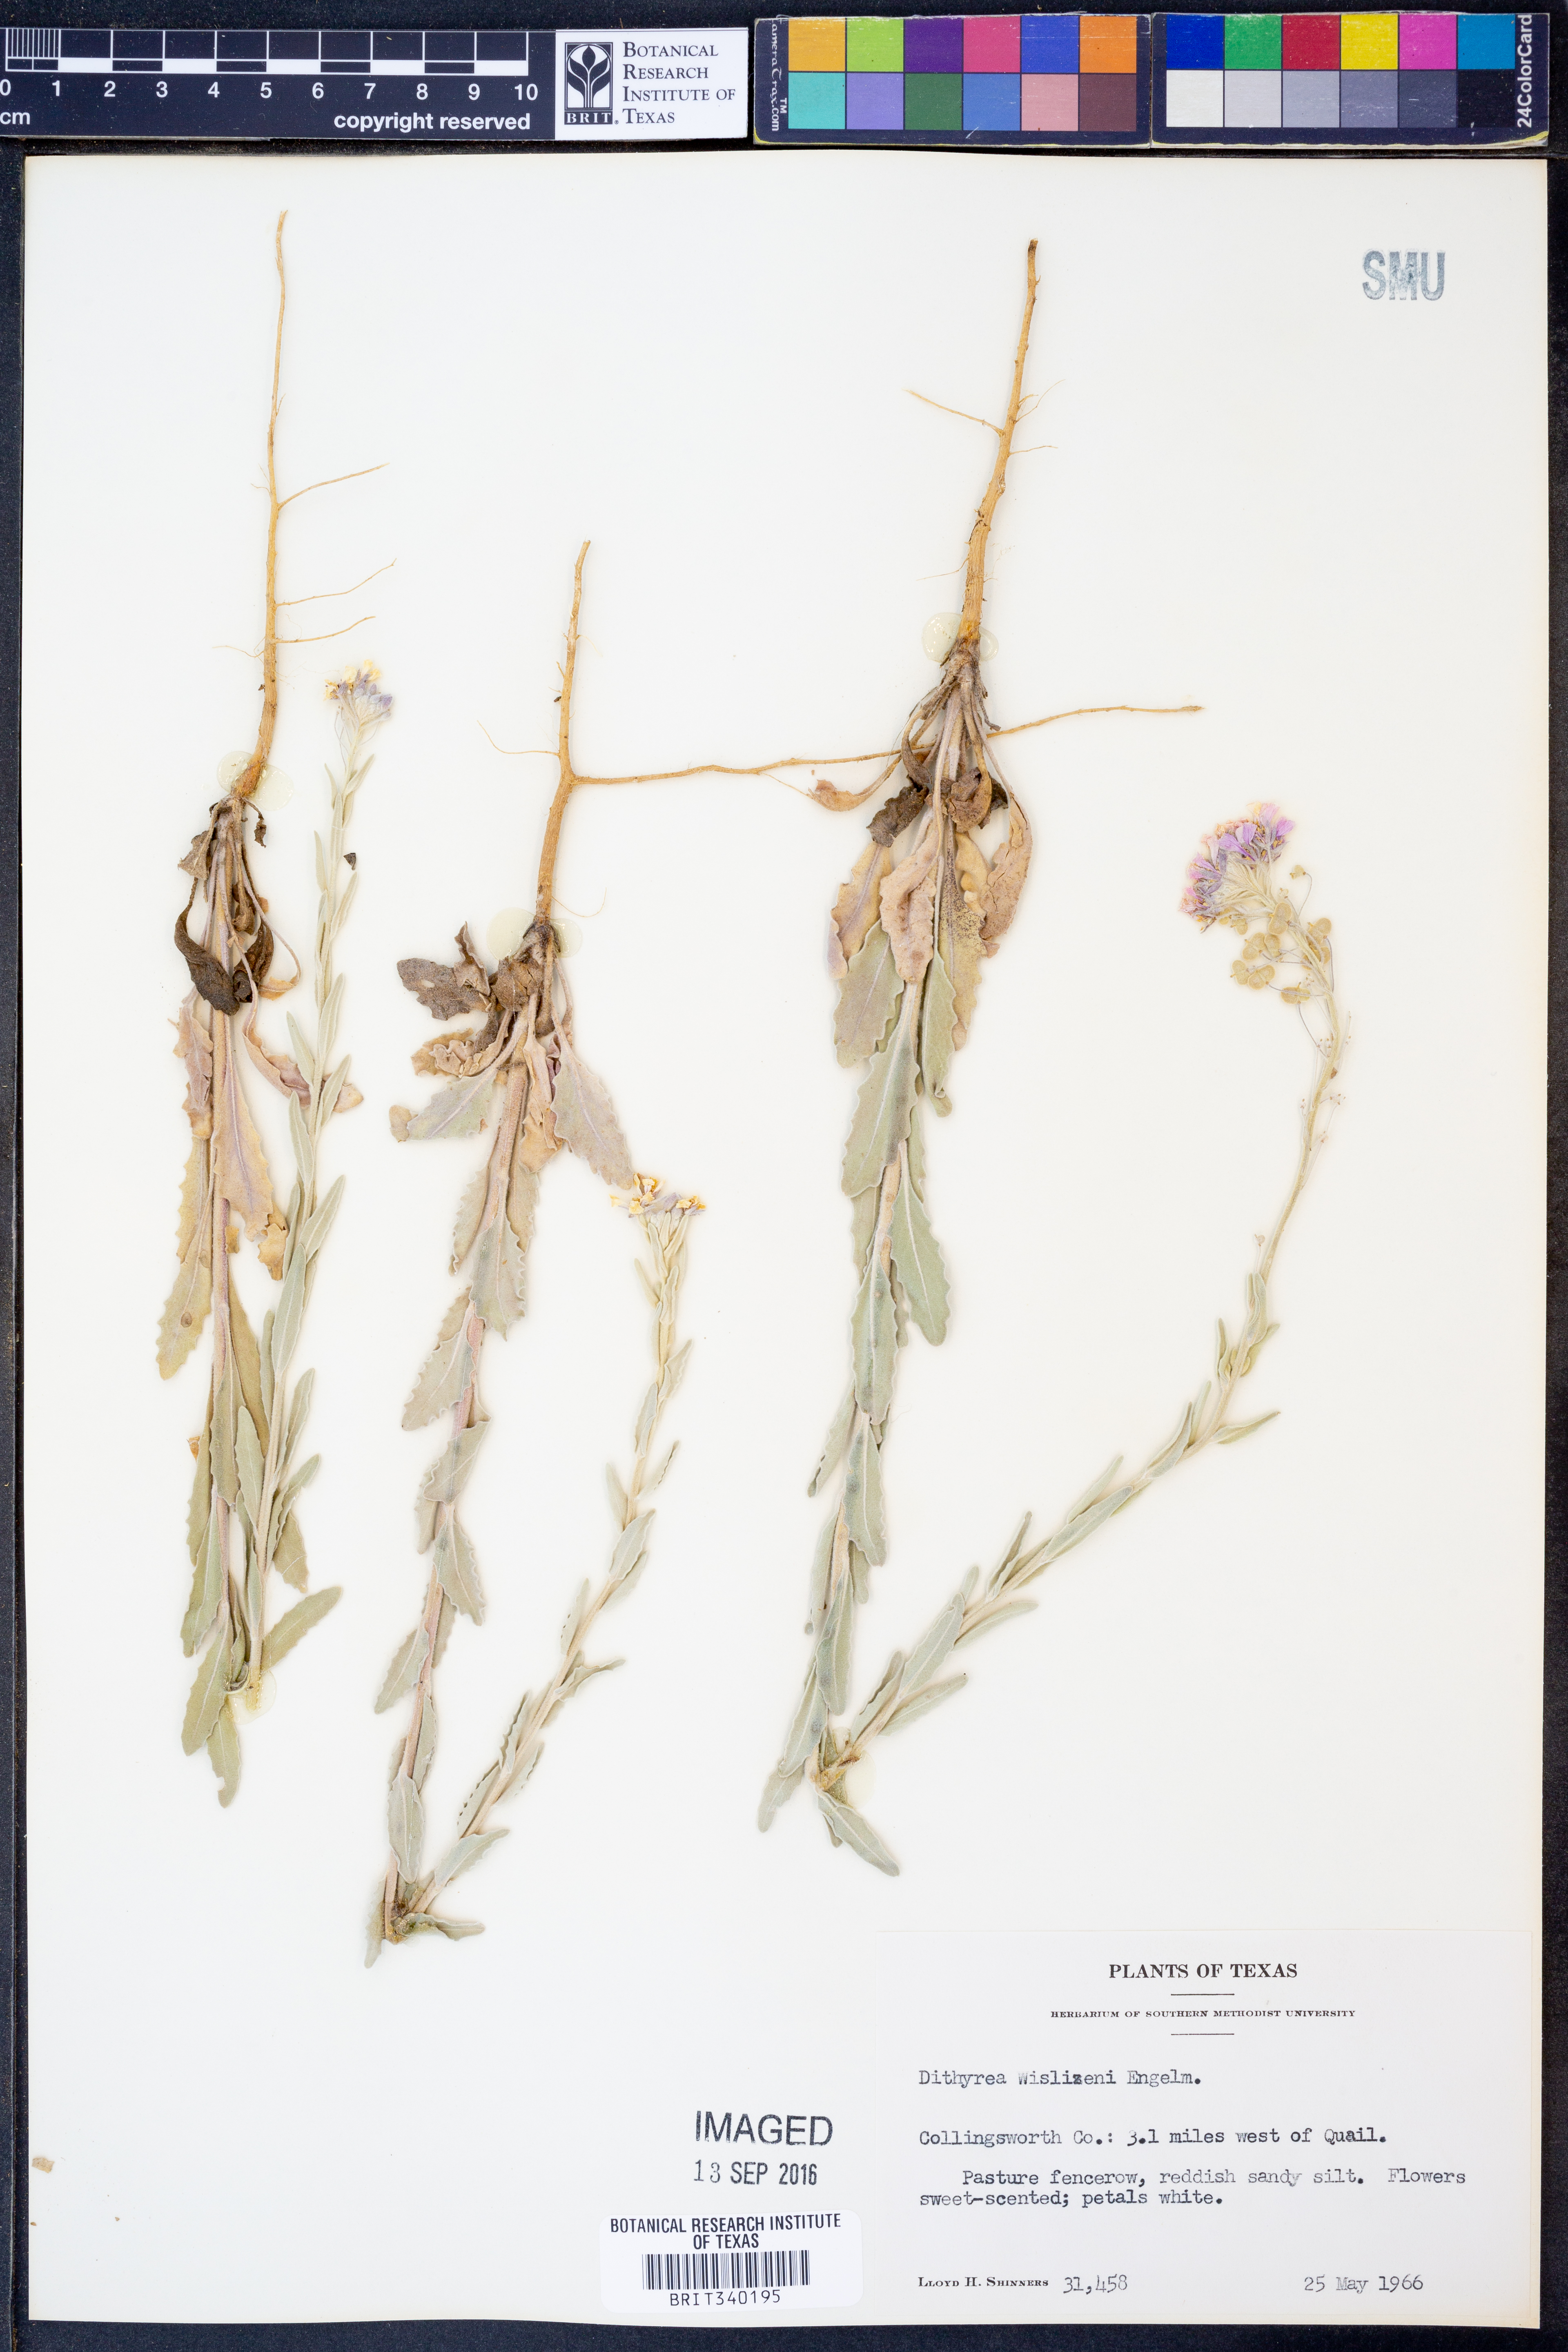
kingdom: Plantae
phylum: Tracheophyta
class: Magnoliopsida
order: Brassicales
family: Brassicaceae
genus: Dimorphocarpa
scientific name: Dimorphocarpa wislizenii
